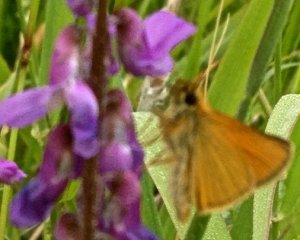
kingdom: Animalia
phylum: Arthropoda
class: Insecta
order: Lepidoptera
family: Hesperiidae
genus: Thymelicus
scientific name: Thymelicus lineola
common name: European Skipper
